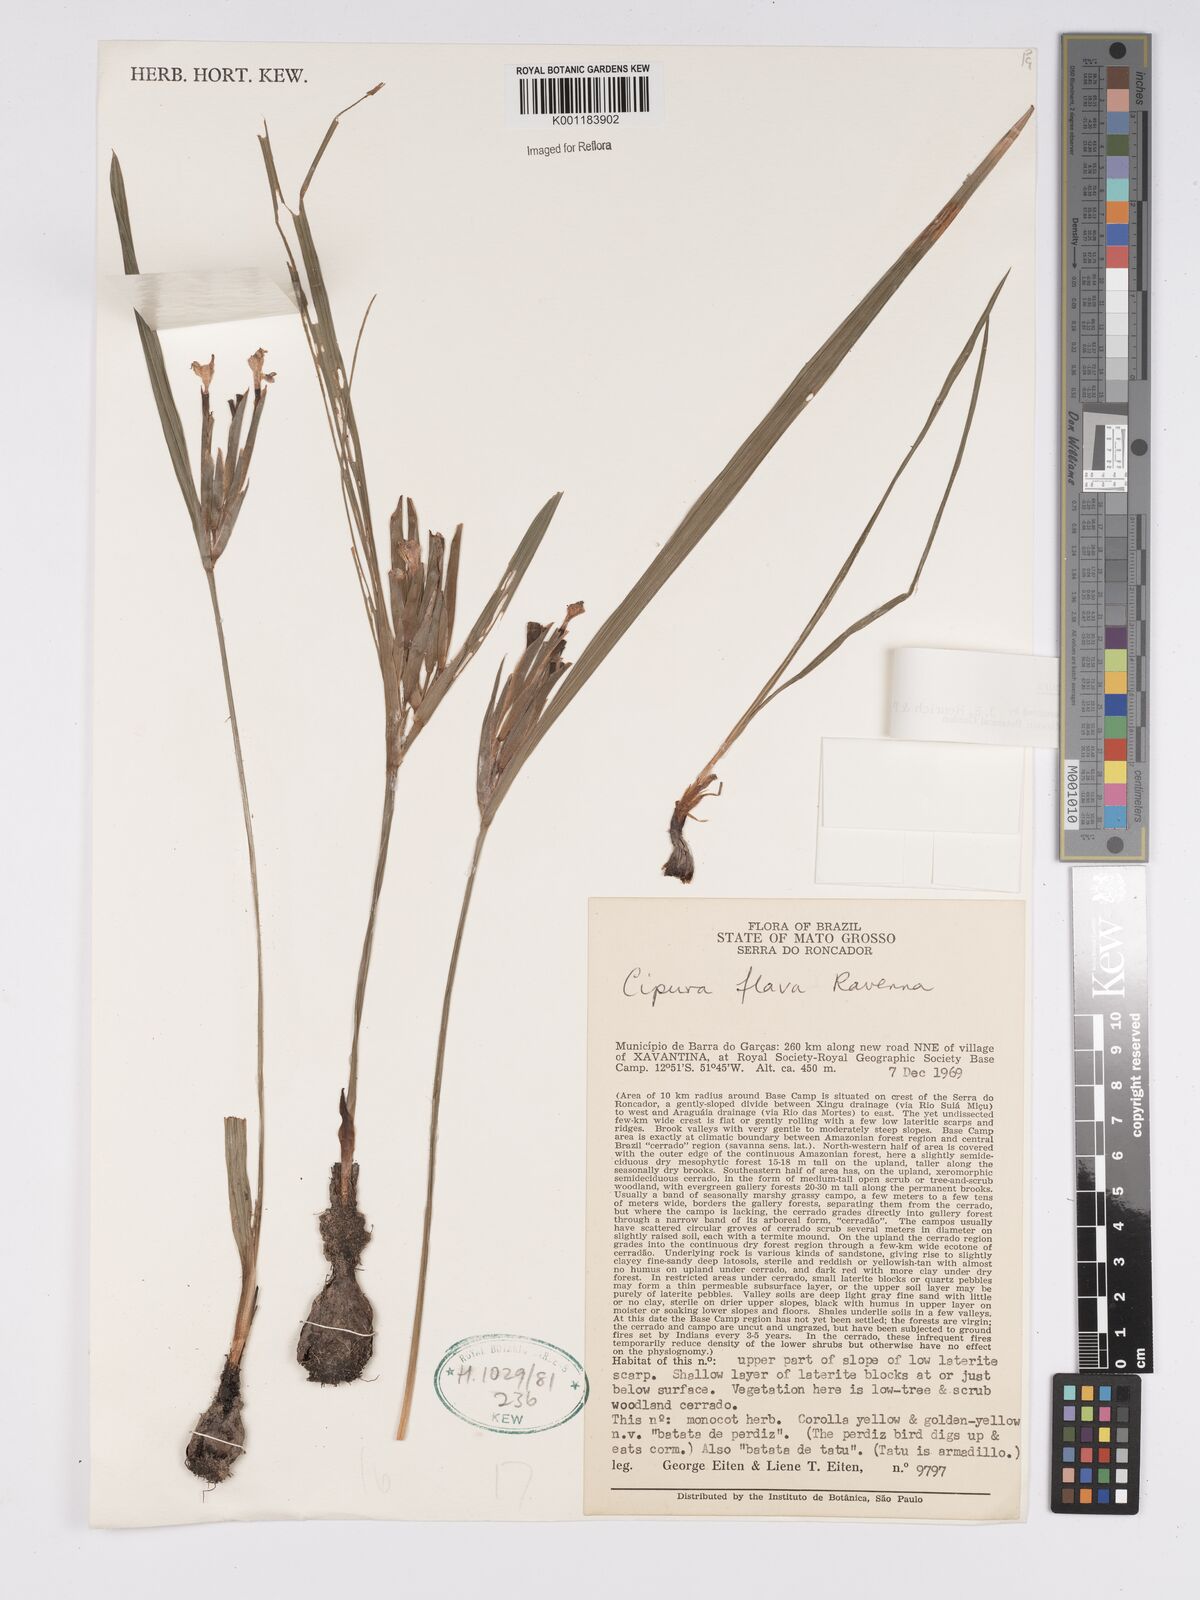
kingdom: Plantae
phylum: Tracheophyta
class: Liliopsida
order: Asparagales
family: Iridaceae
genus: Cipura
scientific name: Cipura
